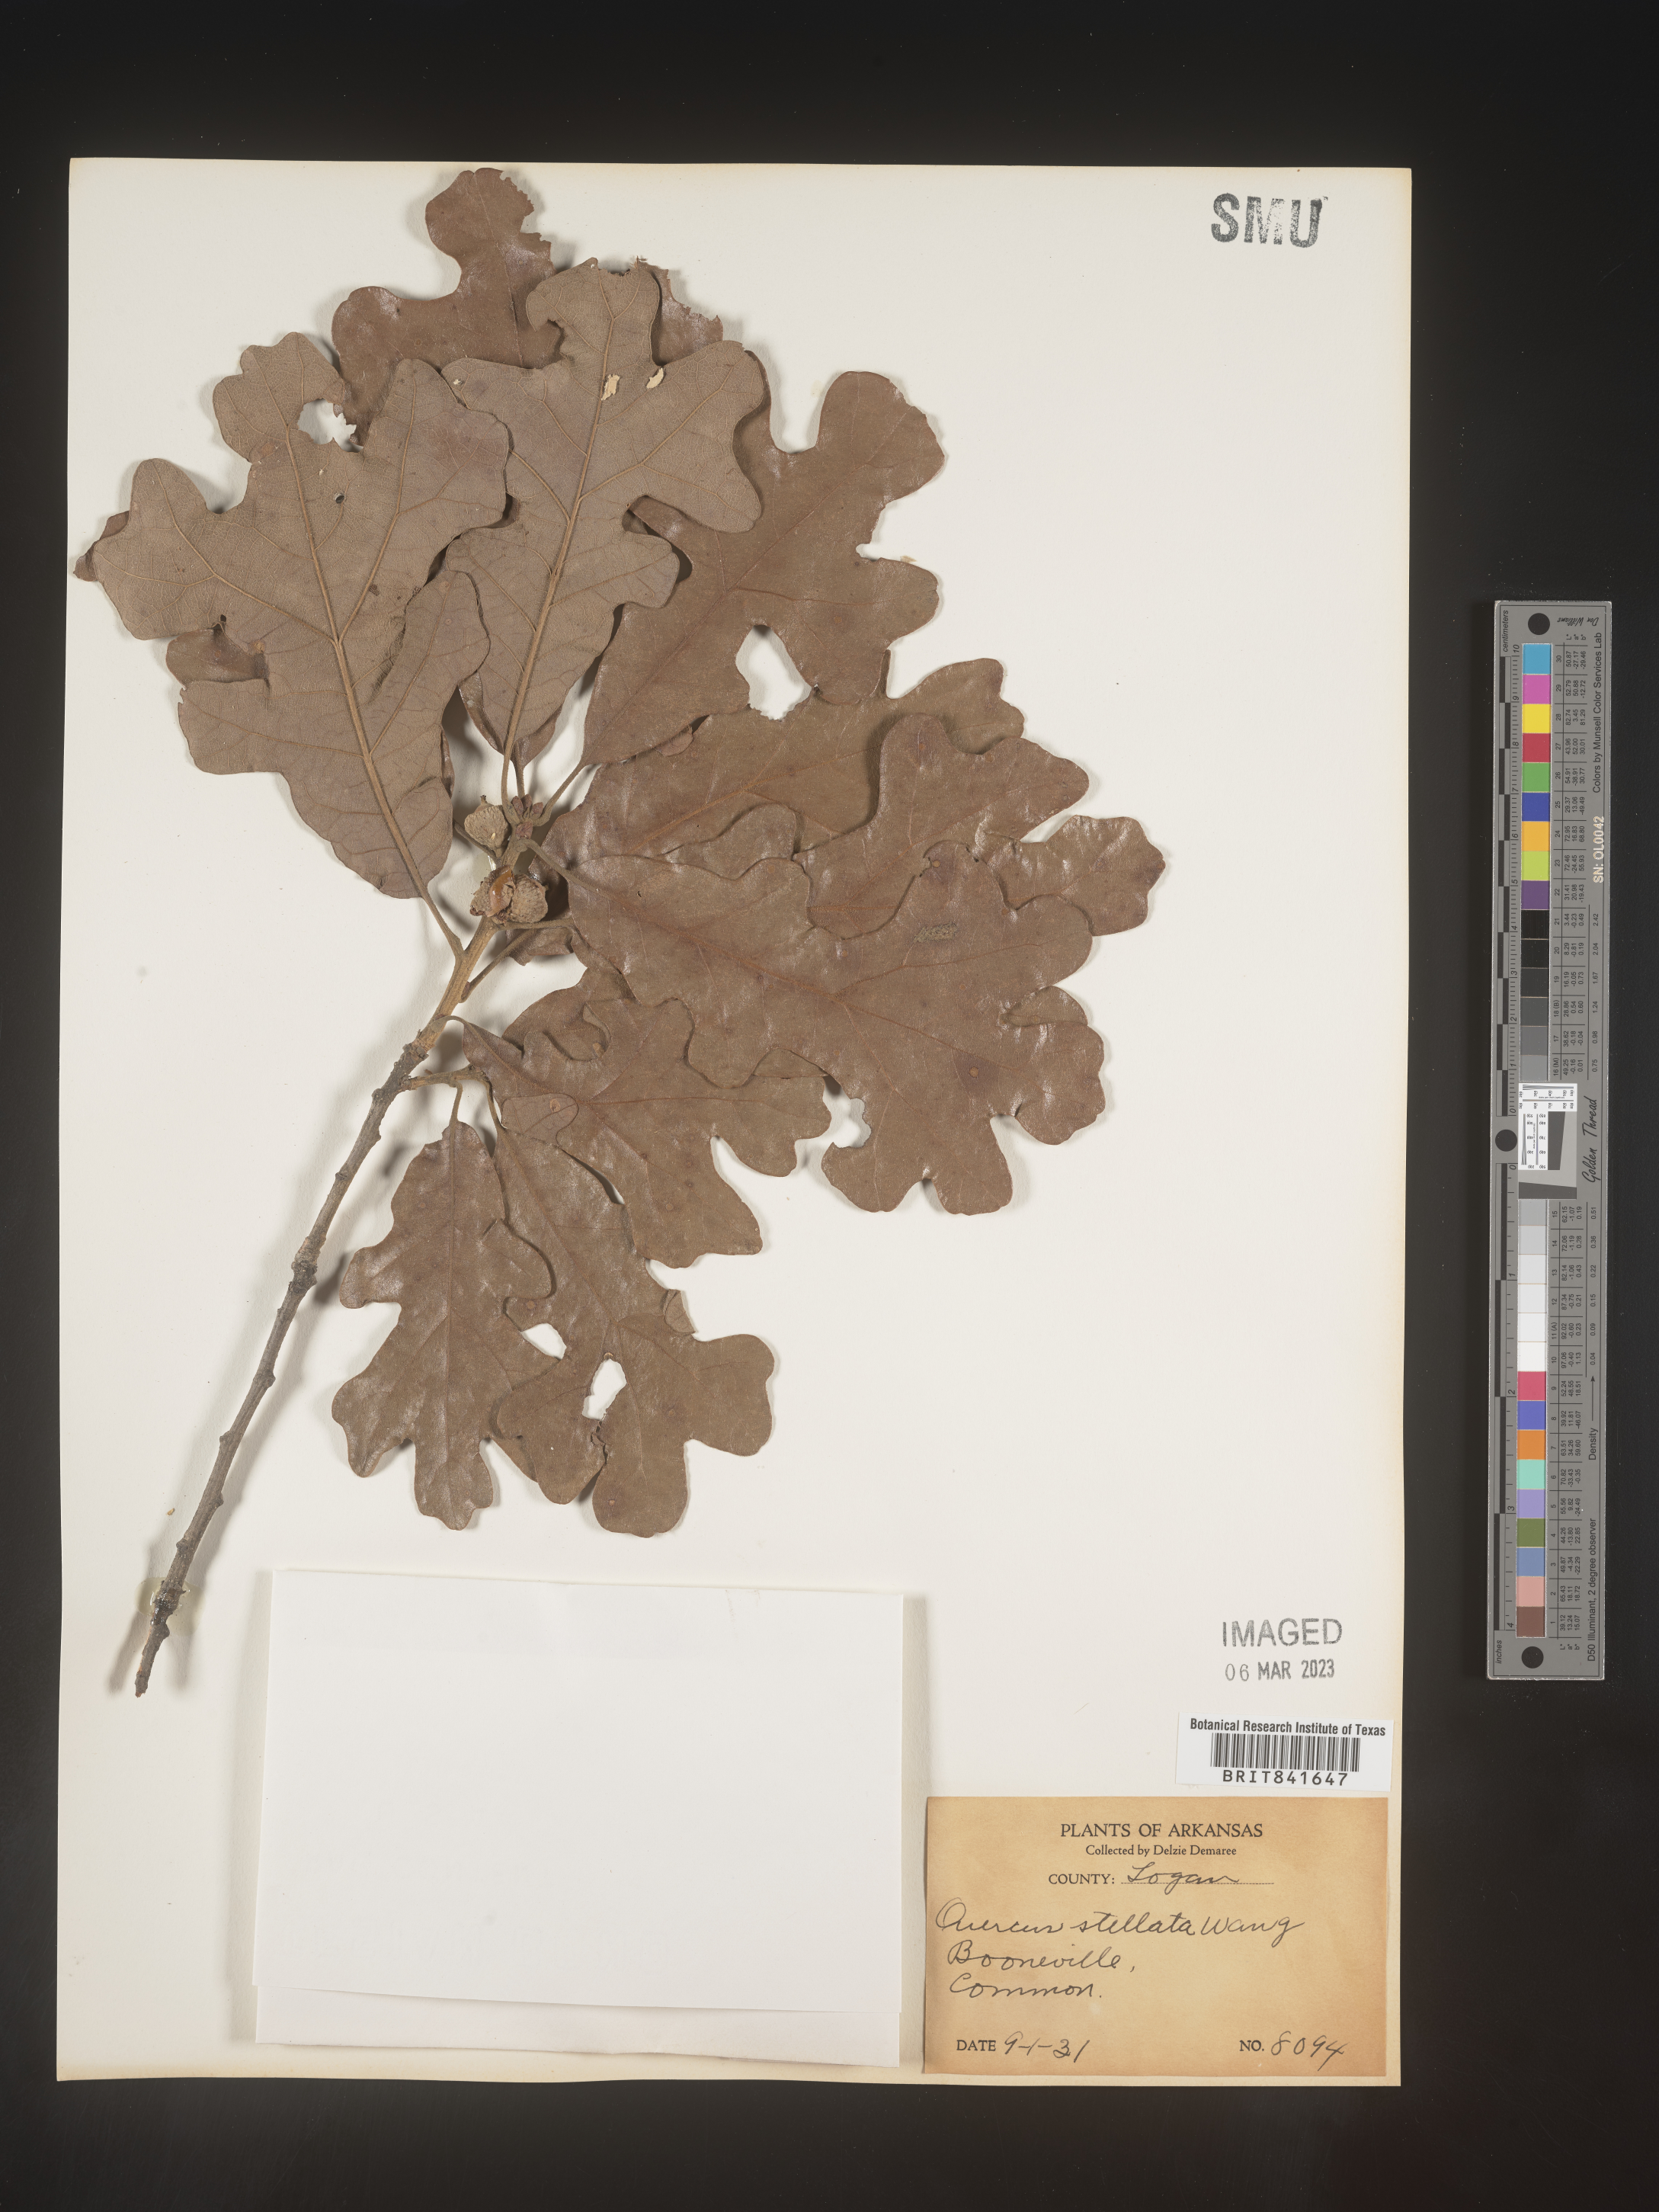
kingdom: Plantae
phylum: Tracheophyta
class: Magnoliopsida
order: Fagales
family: Fagaceae
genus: Quercus
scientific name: Quercus stellata
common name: Post oak
